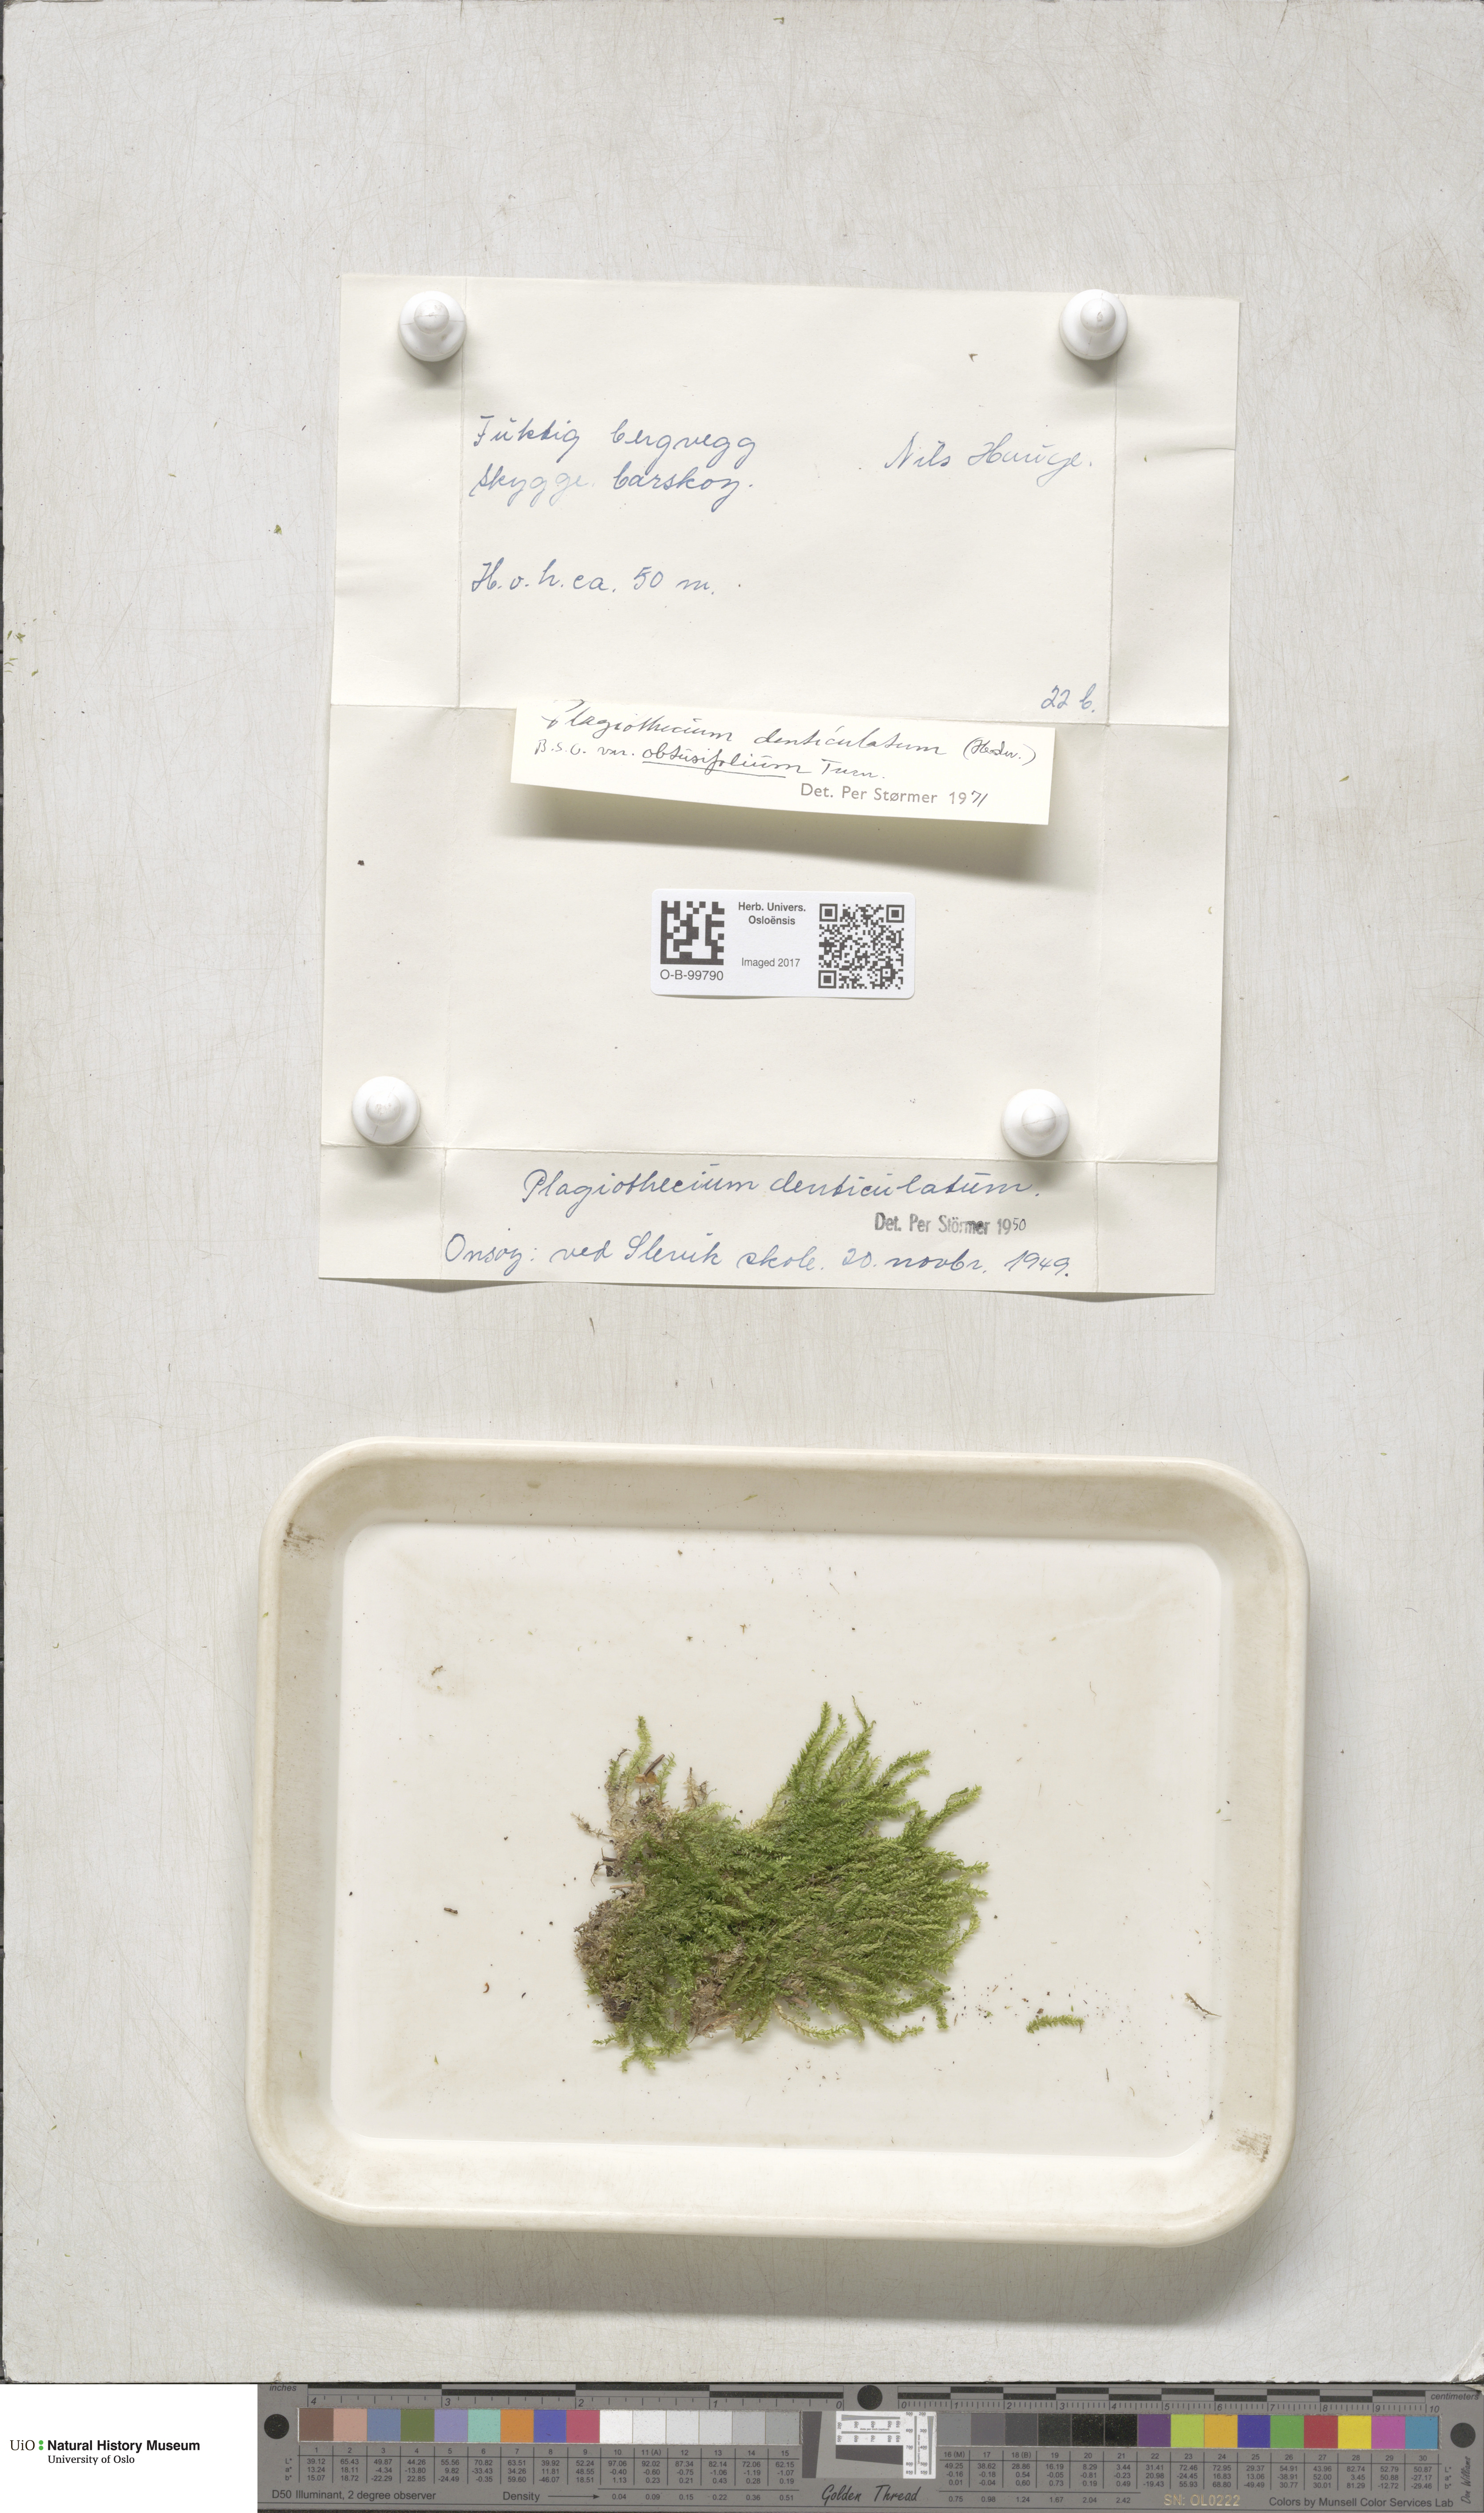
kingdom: Plantae
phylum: Bryophyta
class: Bryopsida
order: Hypnales
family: Plagiotheciaceae
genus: Plagiothecium
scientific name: Plagiothecium denticulatum
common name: Dented silk moss
